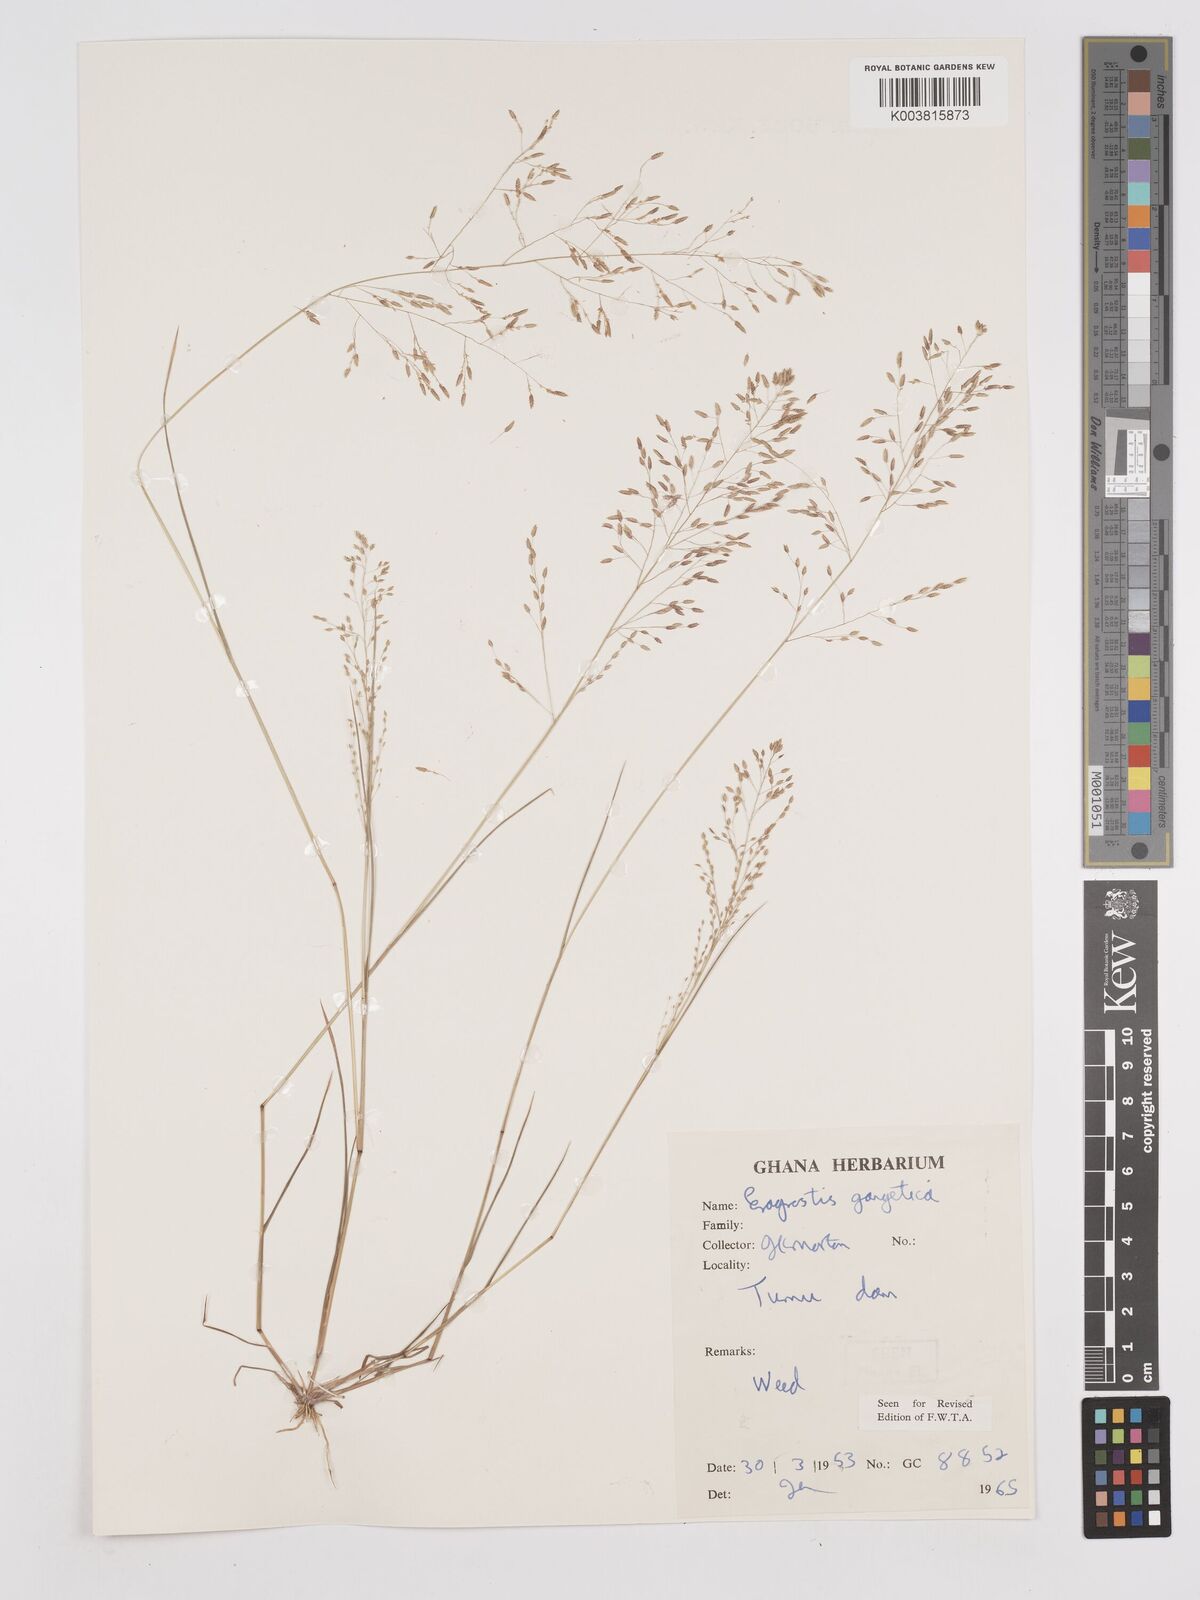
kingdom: Plantae
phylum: Tracheophyta
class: Liliopsida
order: Poales
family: Poaceae
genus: Eragrostis
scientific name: Eragrostis gangetica
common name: Slimflower lovegrass
